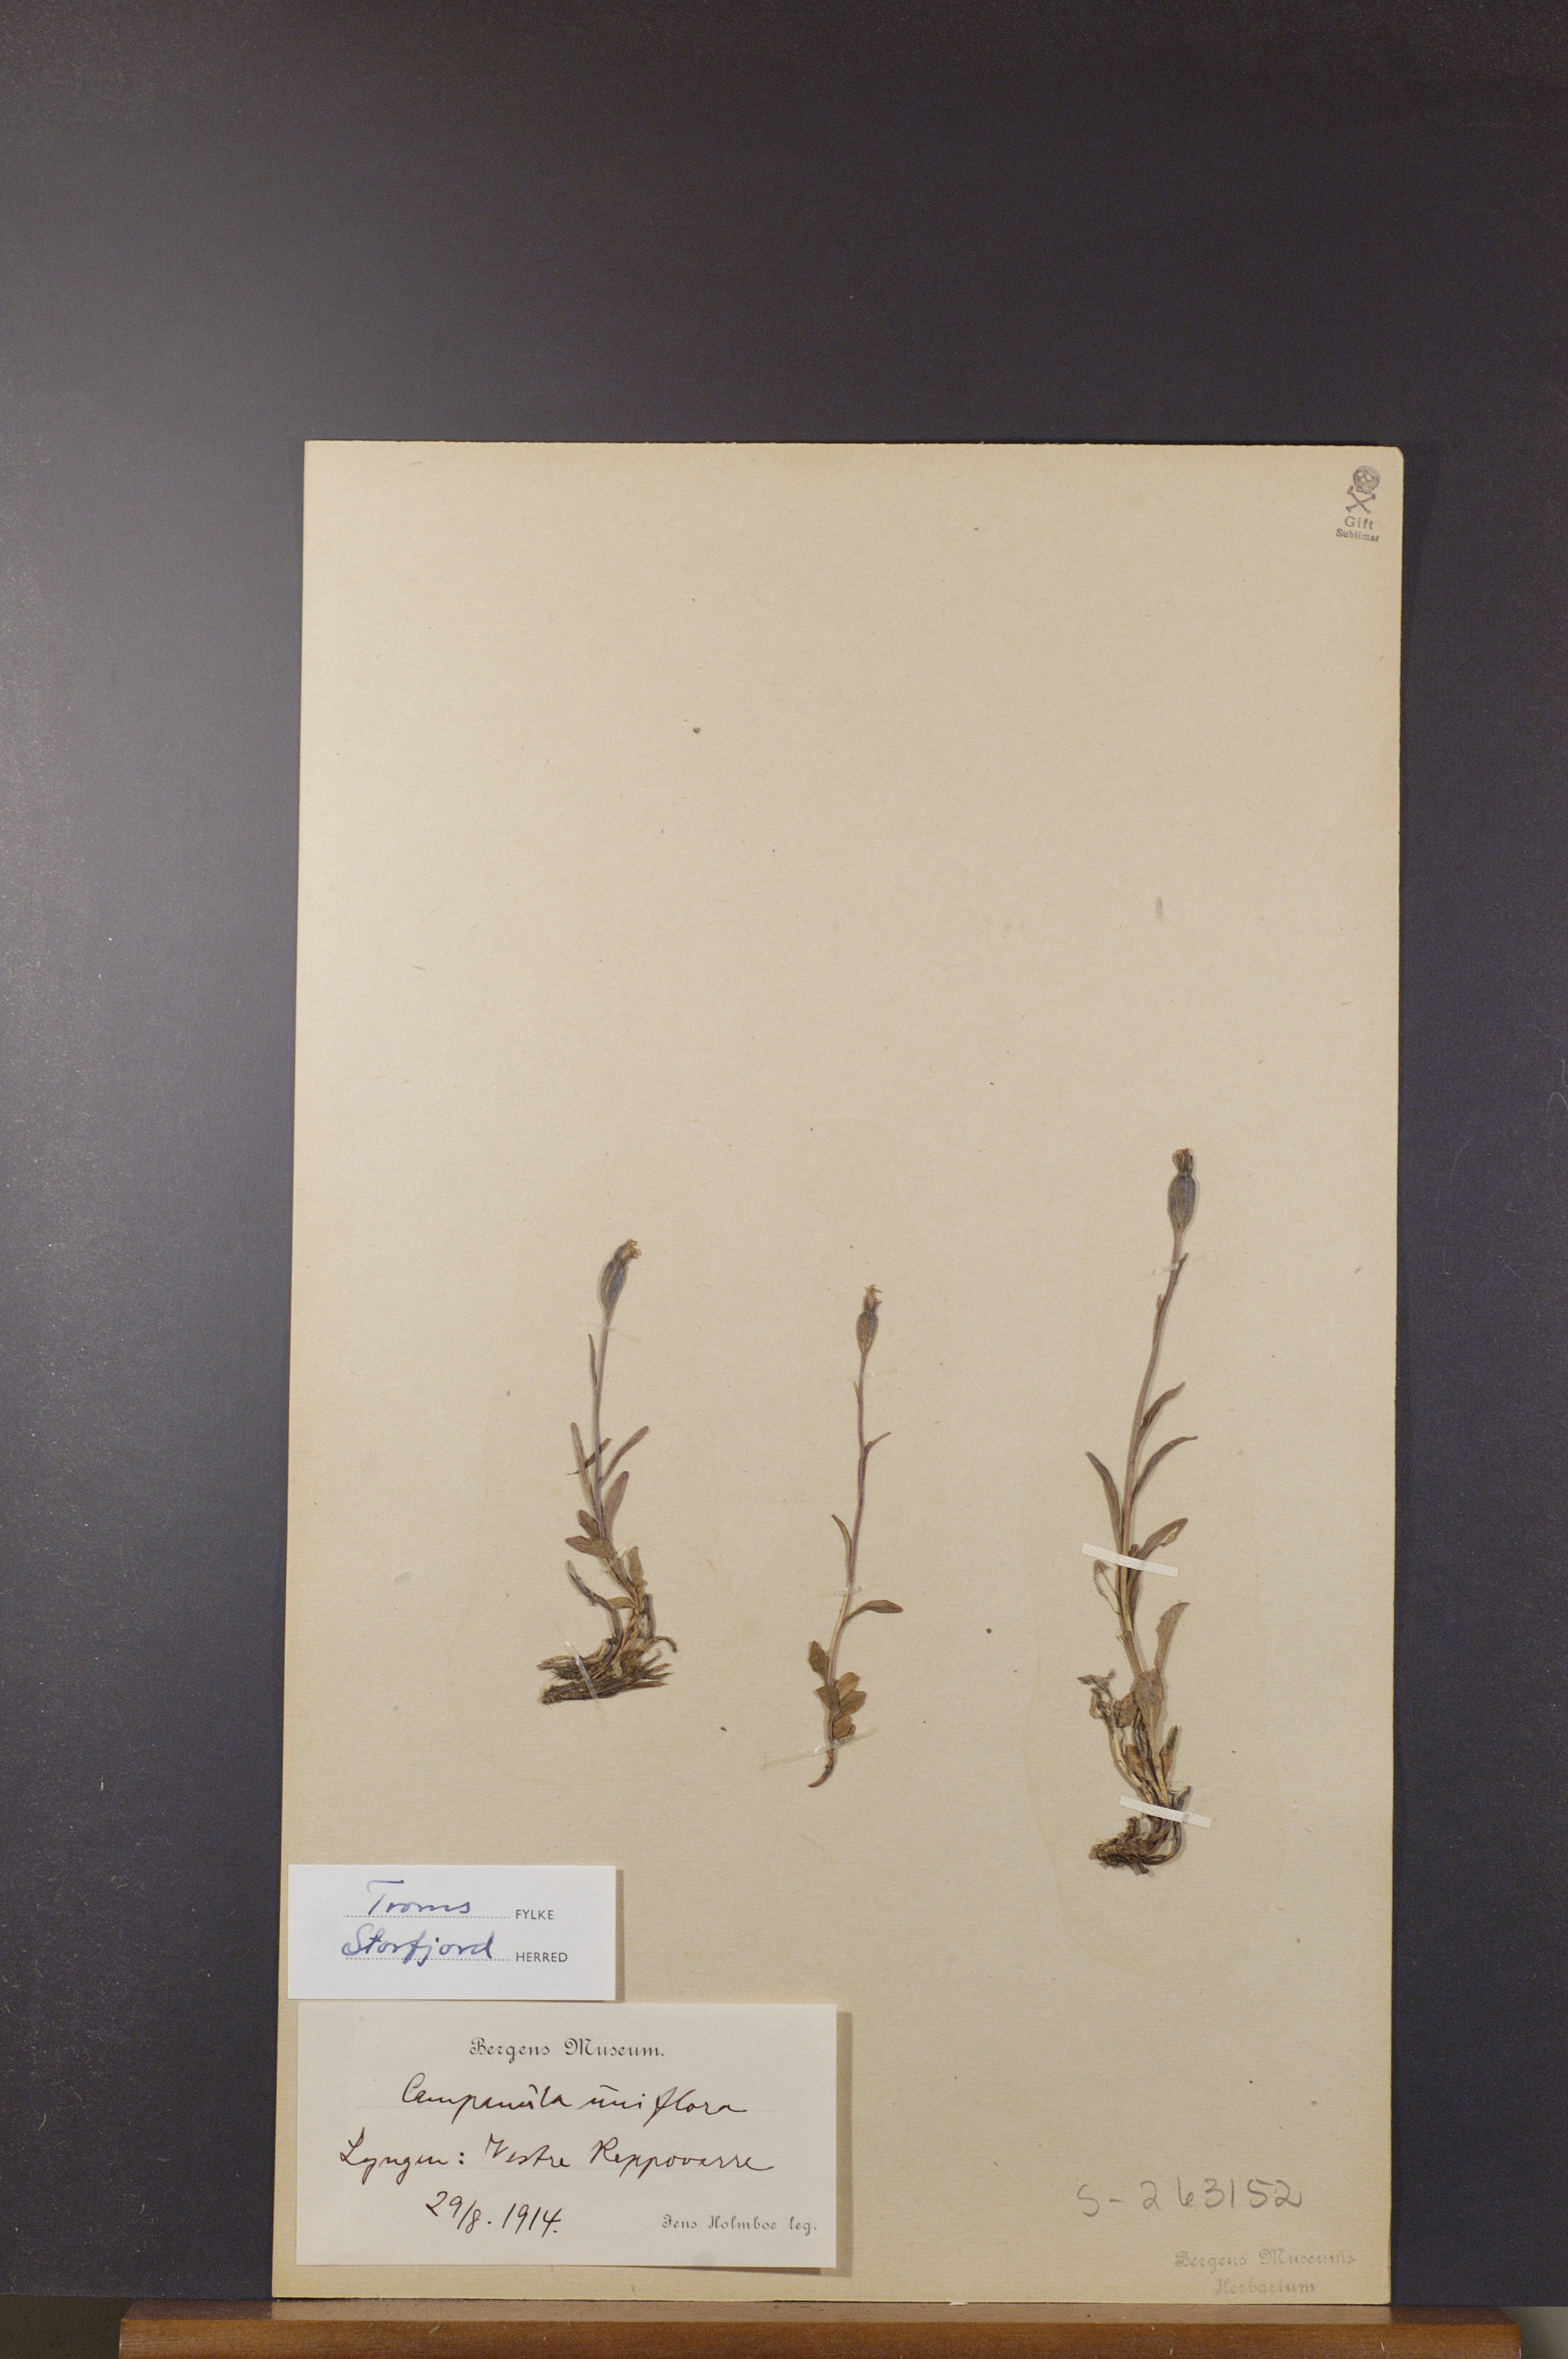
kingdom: Plantae
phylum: Tracheophyta
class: Magnoliopsida
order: Asterales
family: Campanulaceae
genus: Melanocalyx
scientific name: Melanocalyx uniflora
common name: Alpine harebell
